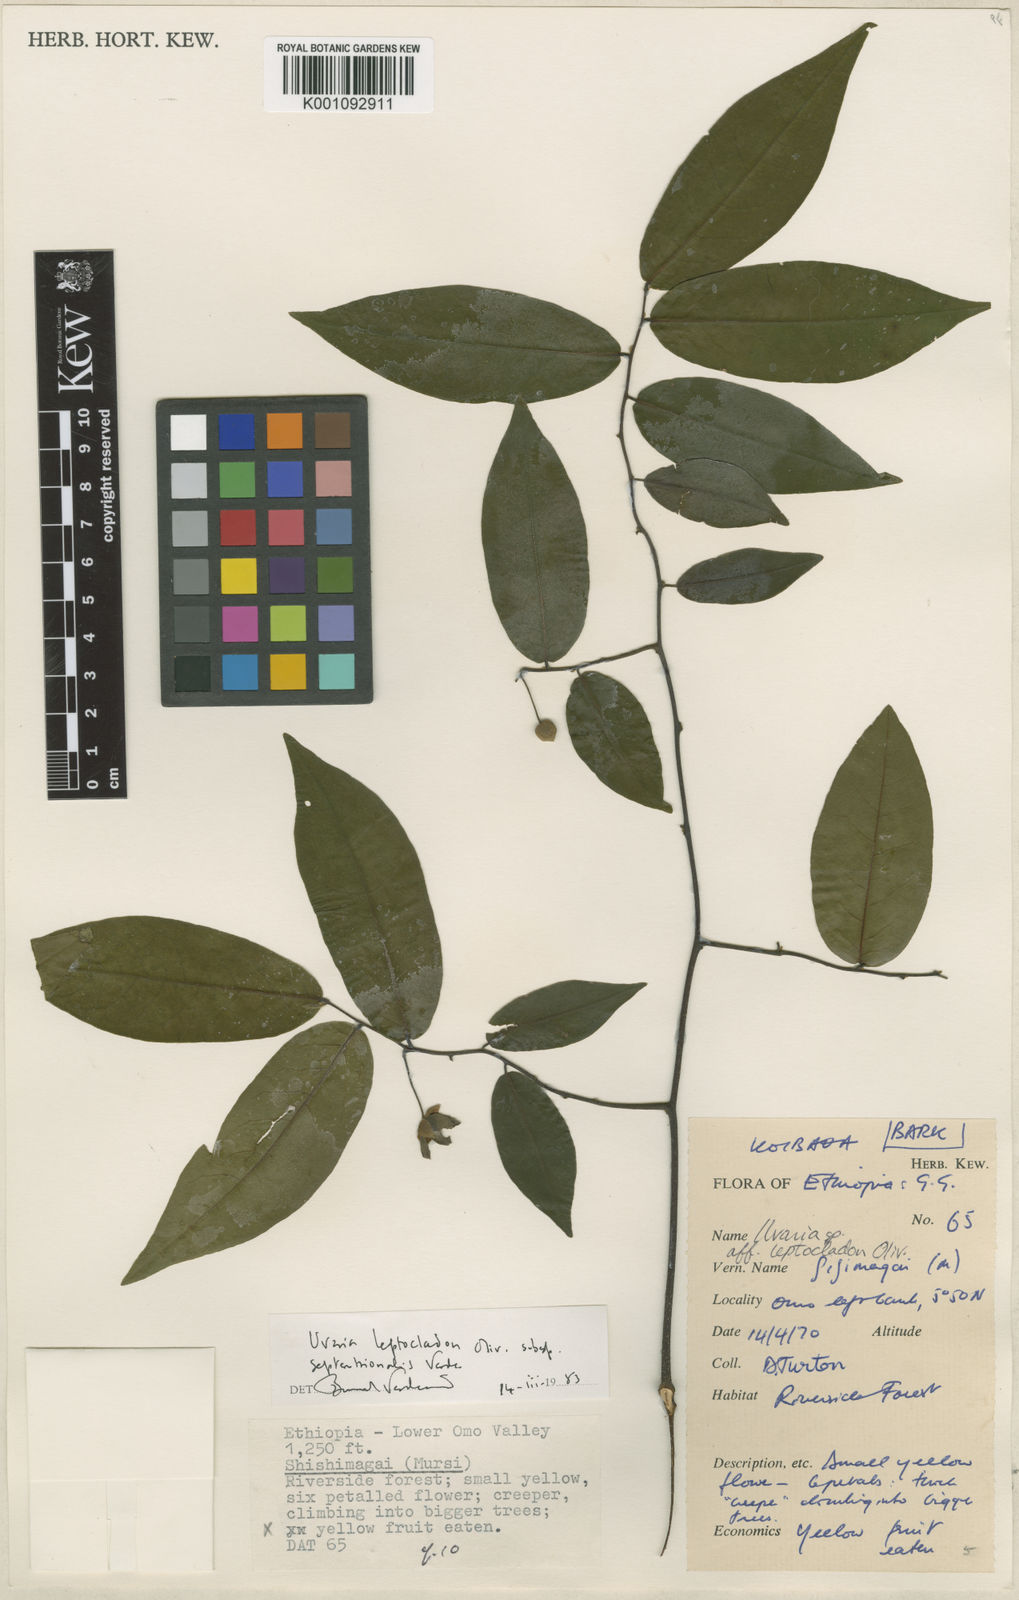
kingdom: Plantae
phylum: Tracheophyta
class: Magnoliopsida
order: Magnoliales
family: Annonaceae
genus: Uvaria
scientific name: Uvaria leptocladon
